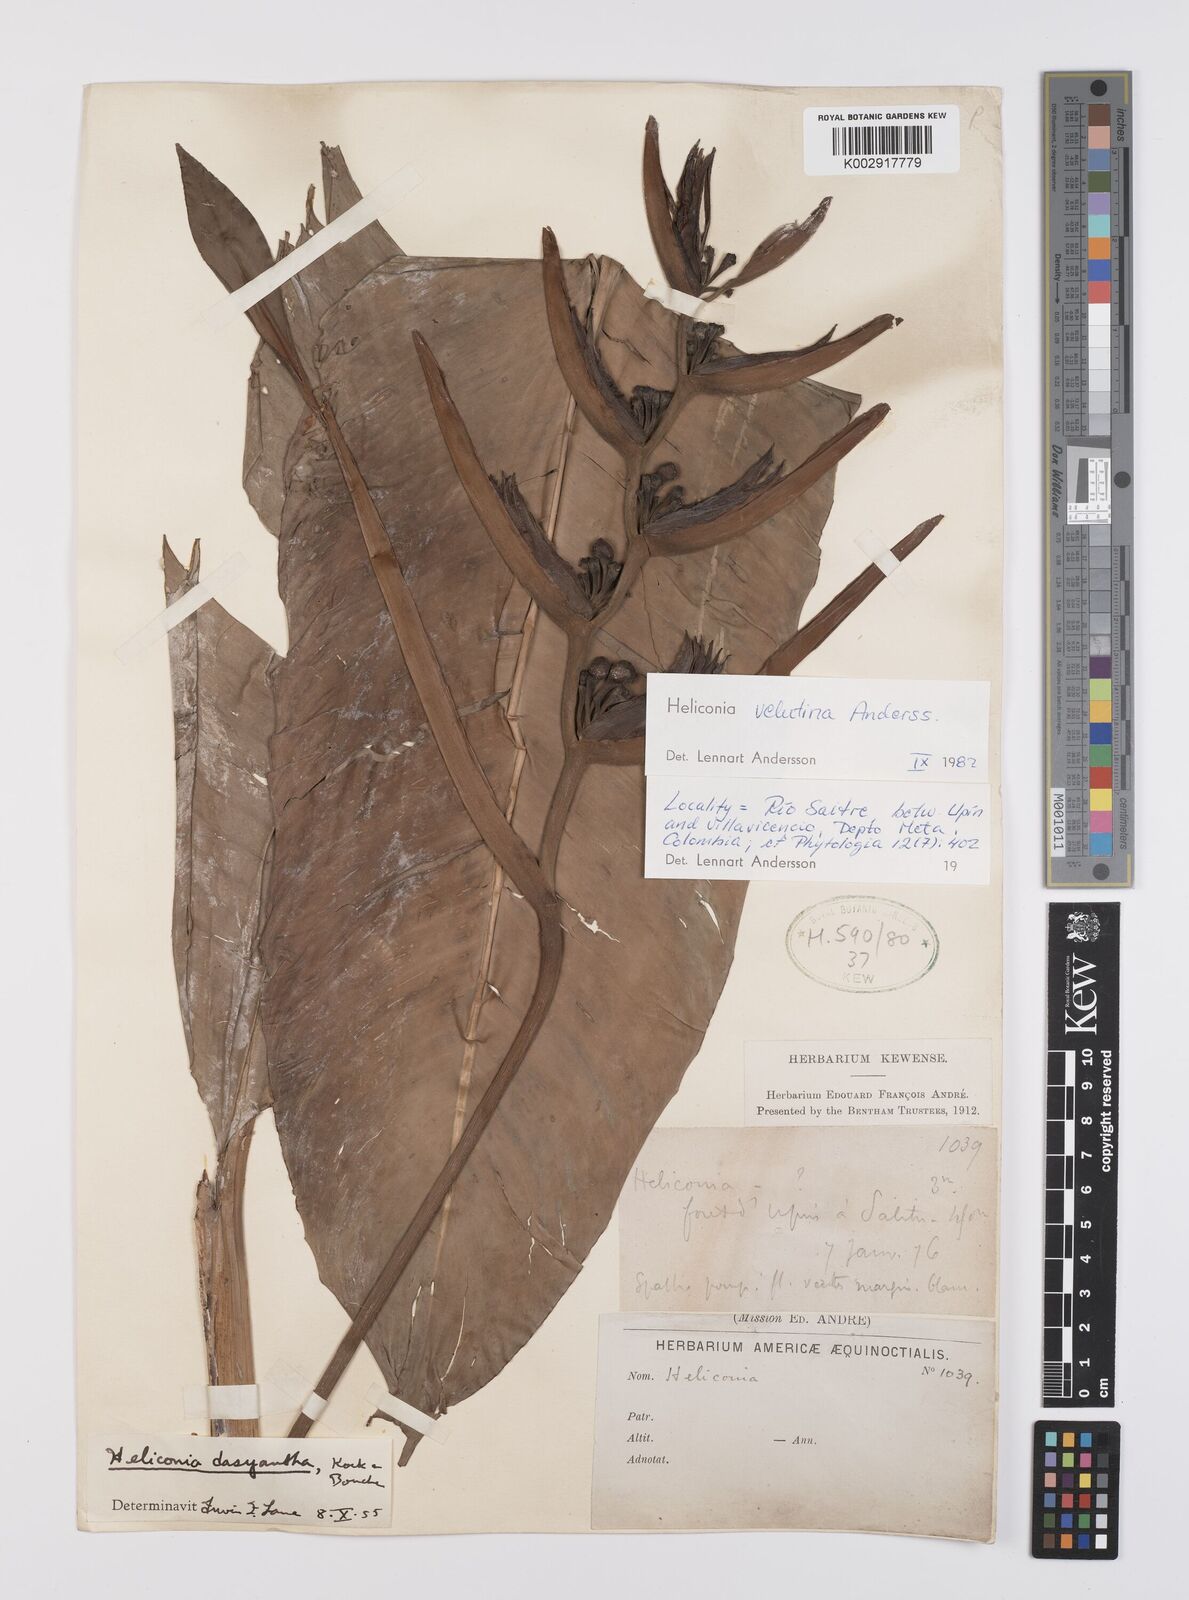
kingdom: Plantae
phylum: Tracheophyta
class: Liliopsida
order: Zingiberales
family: Heliconiaceae
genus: Heliconia
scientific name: Heliconia velutina
